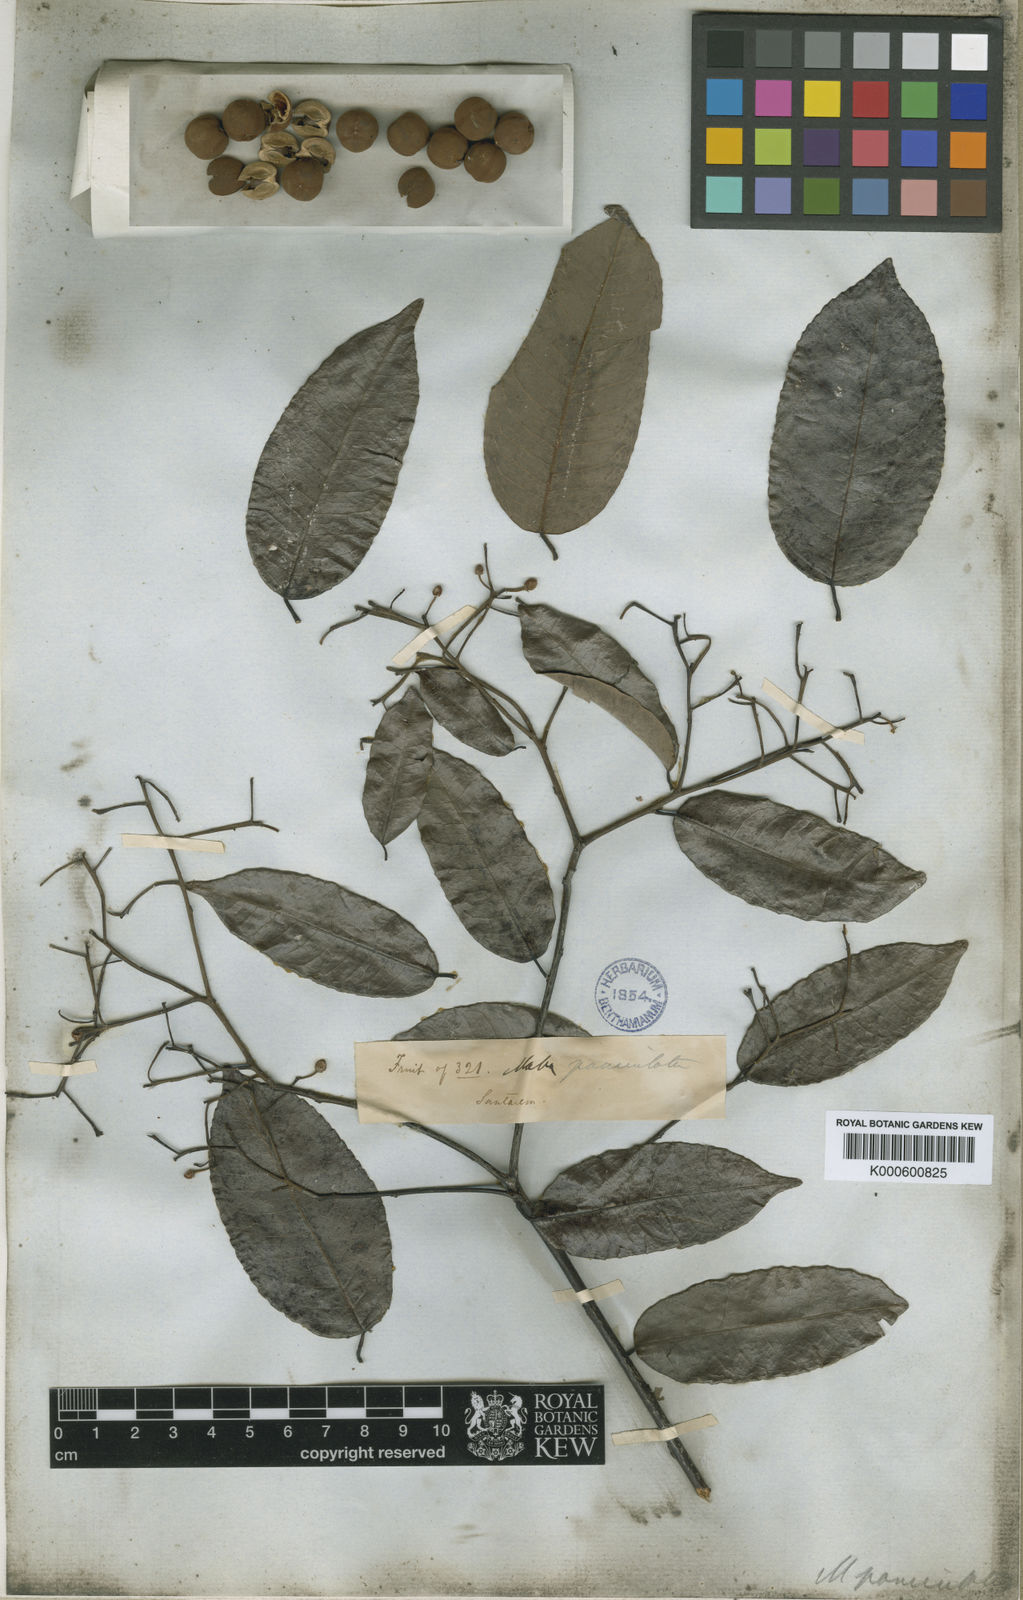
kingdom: Plantae
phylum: Tracheophyta
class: Magnoliopsida
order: Malpighiales
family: Euphorbiaceae
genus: Mabea
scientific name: Mabea paniculata
